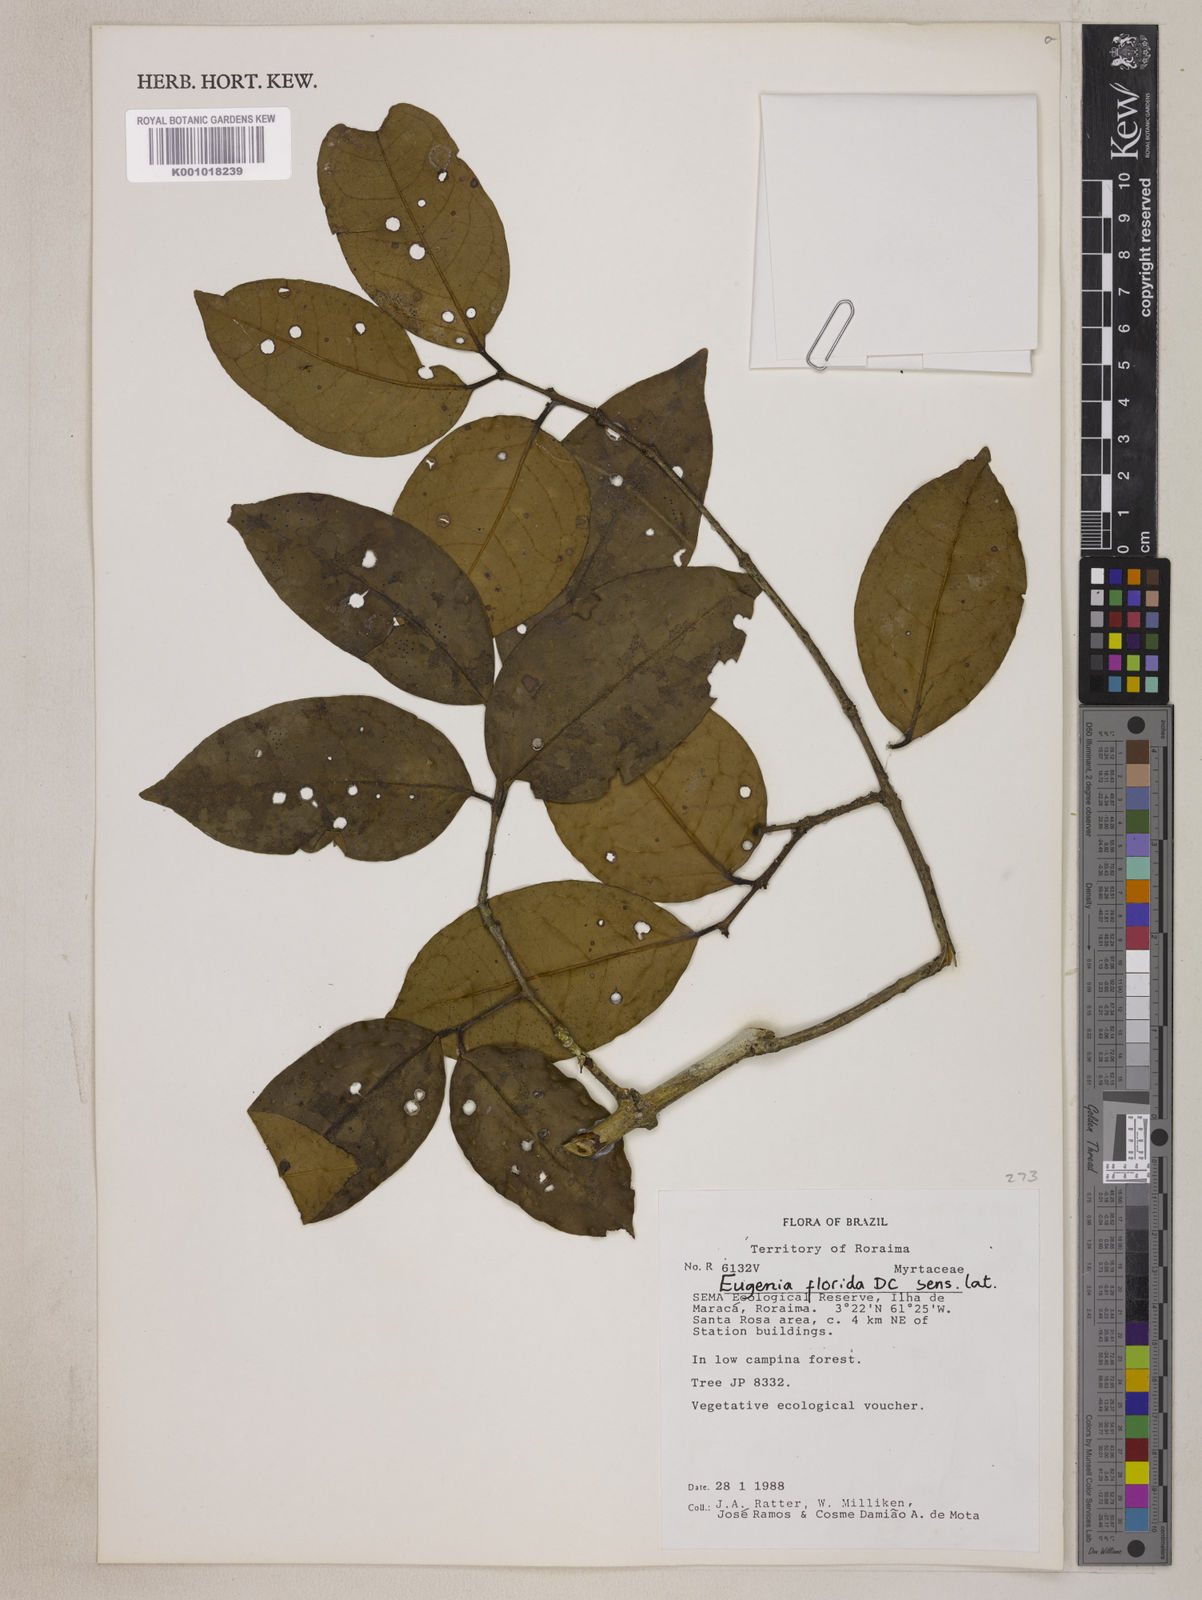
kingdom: Plantae
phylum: Tracheophyta
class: Magnoliopsida
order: Myrtales
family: Myrtaceae
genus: Eugenia
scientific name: Eugenia florida
